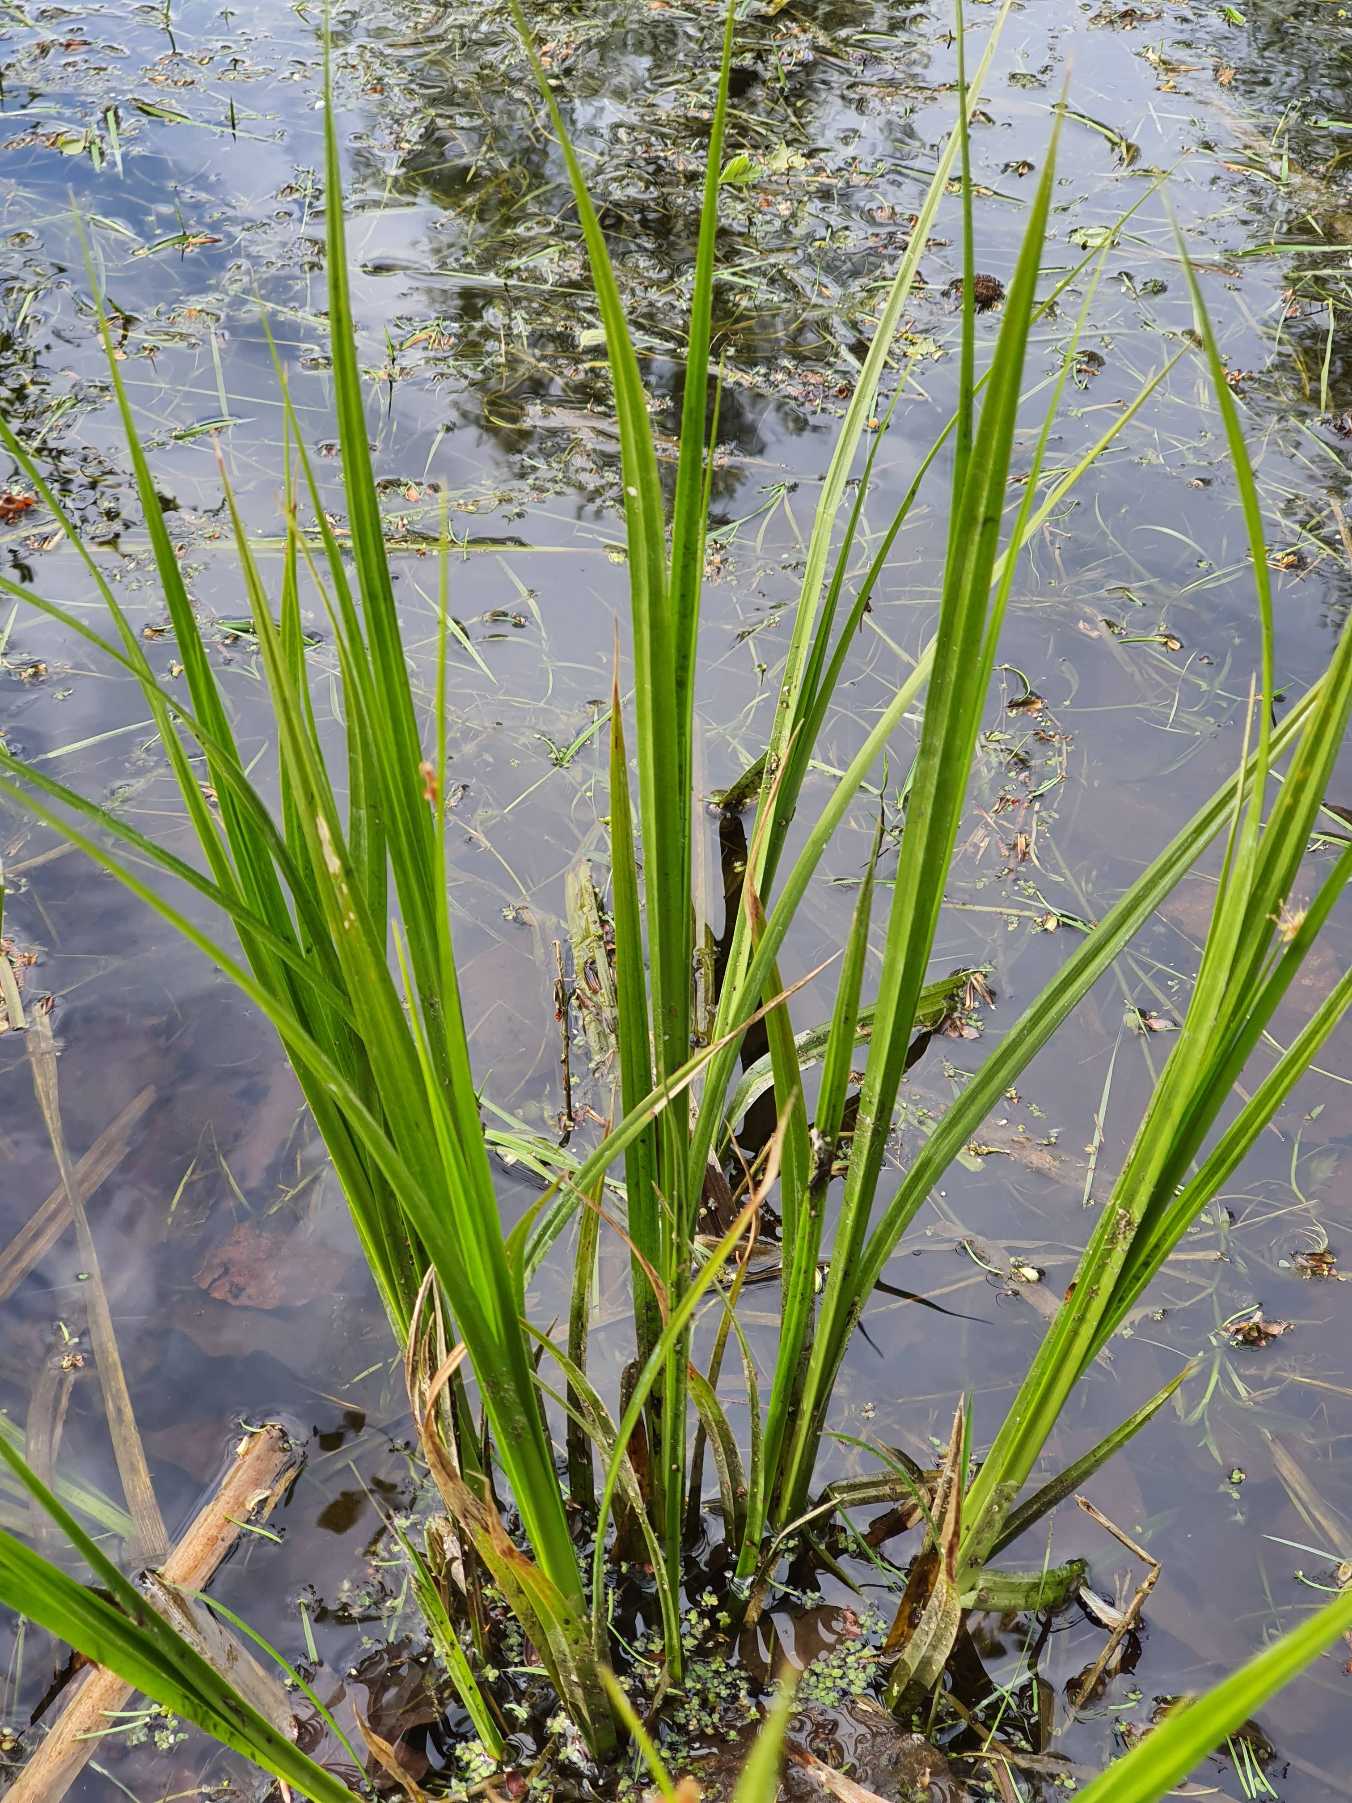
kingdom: Plantae
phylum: Tracheophyta
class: Liliopsida
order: Poales
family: Cyperaceae
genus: Carex
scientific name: Carex pseudocyperus
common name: Knippe-star
